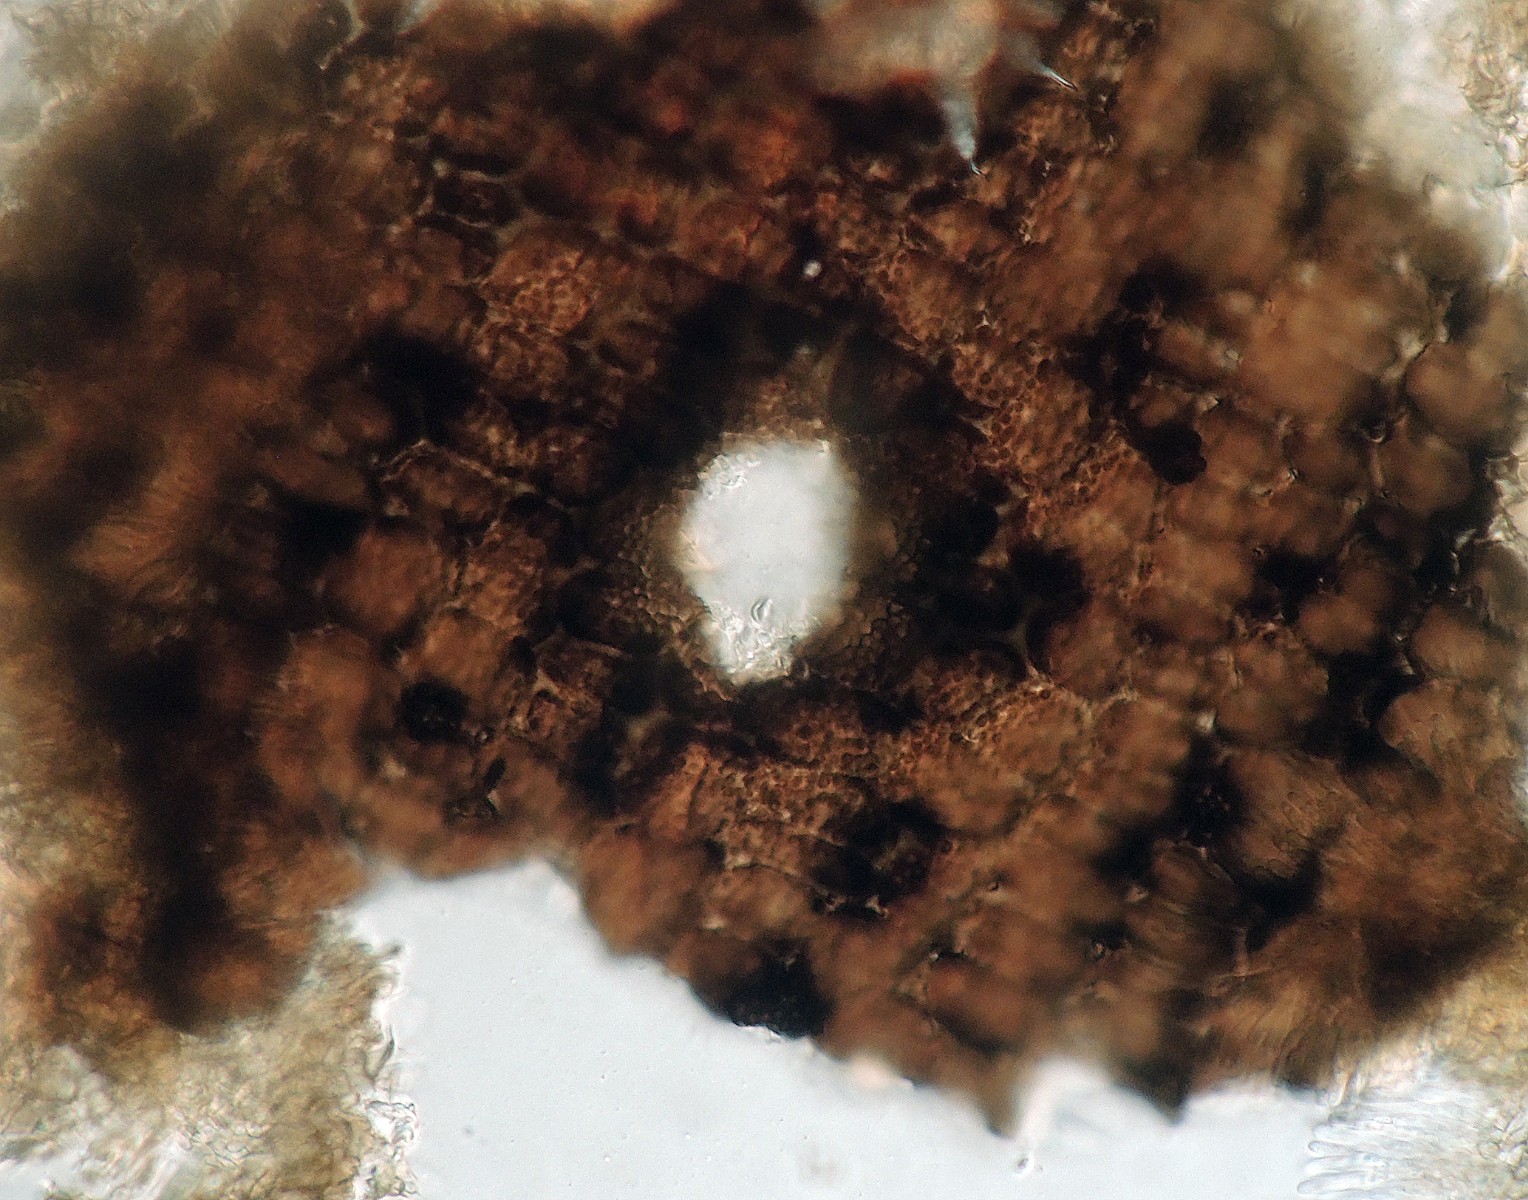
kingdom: Fungi
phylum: Ascomycota
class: Sordariomycetes
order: Amphisphaeriales
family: Discosiaceae
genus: Discosia
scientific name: Discosia
